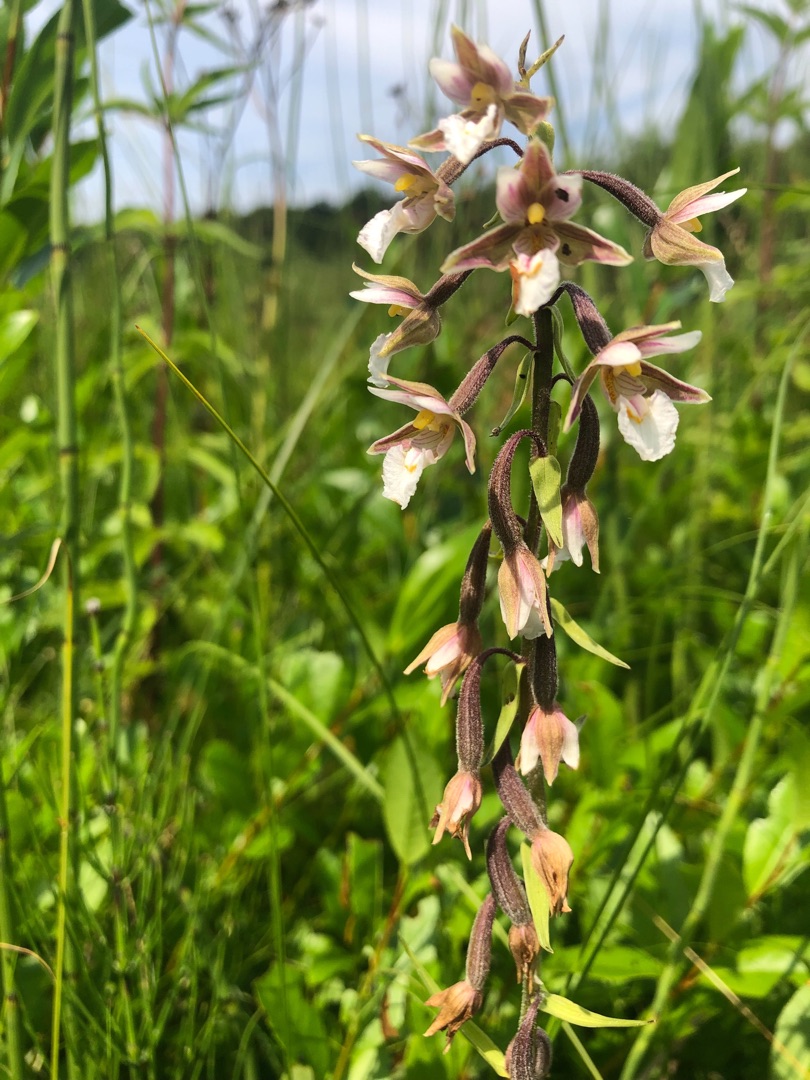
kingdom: Plantae
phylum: Tracheophyta
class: Liliopsida
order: Asparagales
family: Orchidaceae
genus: Epipactis
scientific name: Epipactis palustris
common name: Sump-hullæbe
